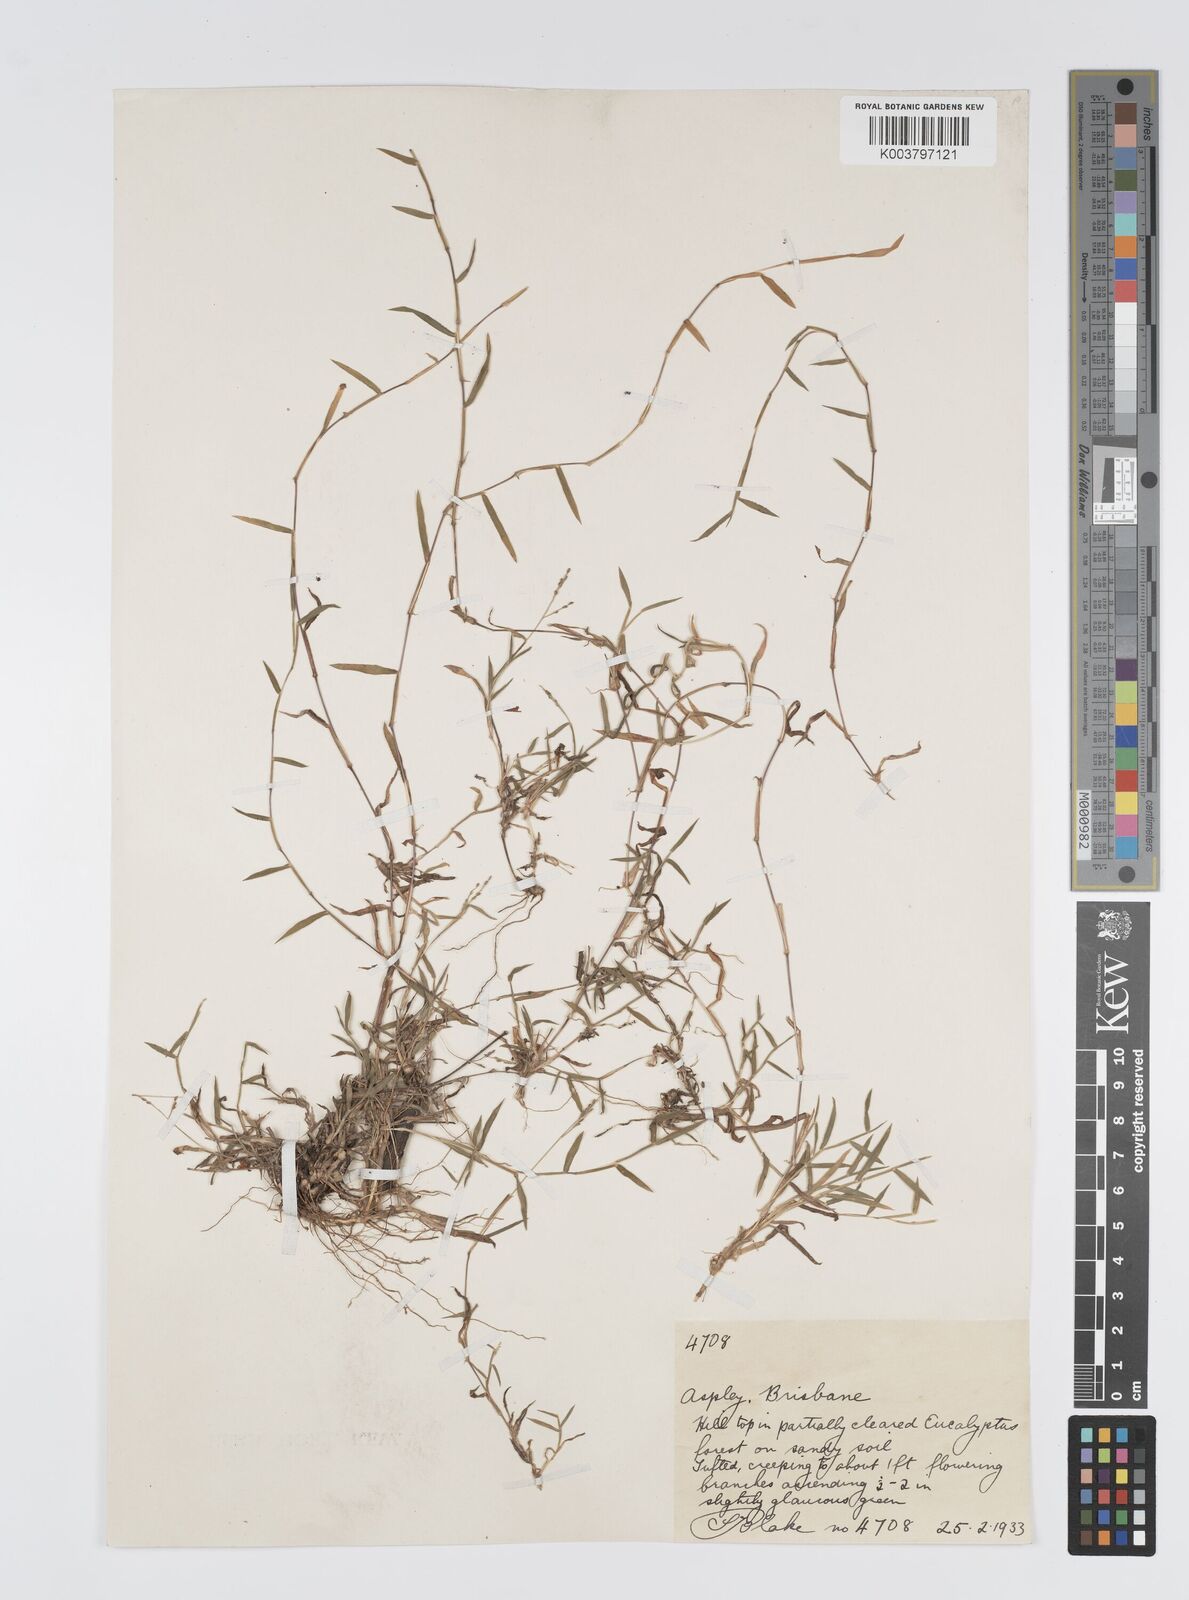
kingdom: Plantae
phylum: Tracheophyta
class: Liliopsida
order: Poales
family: Poaceae
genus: Digitaria
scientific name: Digitaria diffusa
